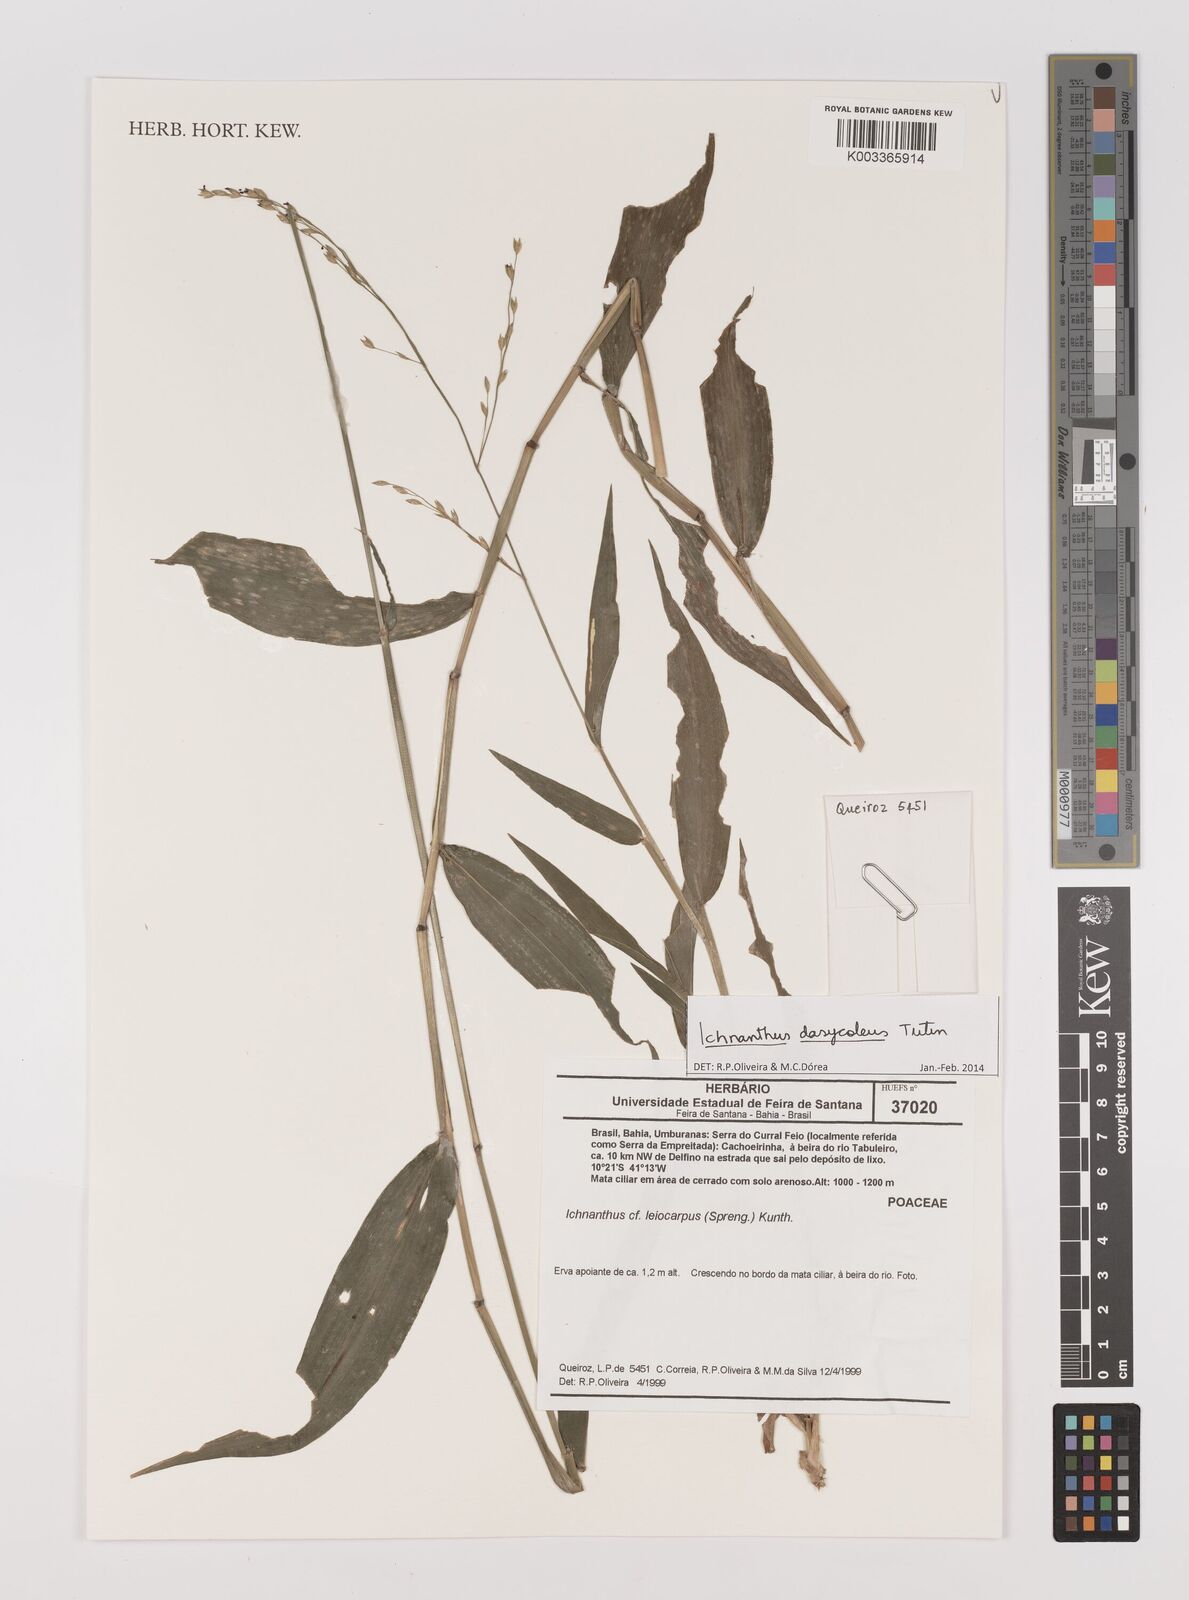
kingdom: Plantae
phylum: Tracheophyta
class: Liliopsida
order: Poales
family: Poaceae
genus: Ichnanthus
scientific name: Ichnanthus dasycoleus
